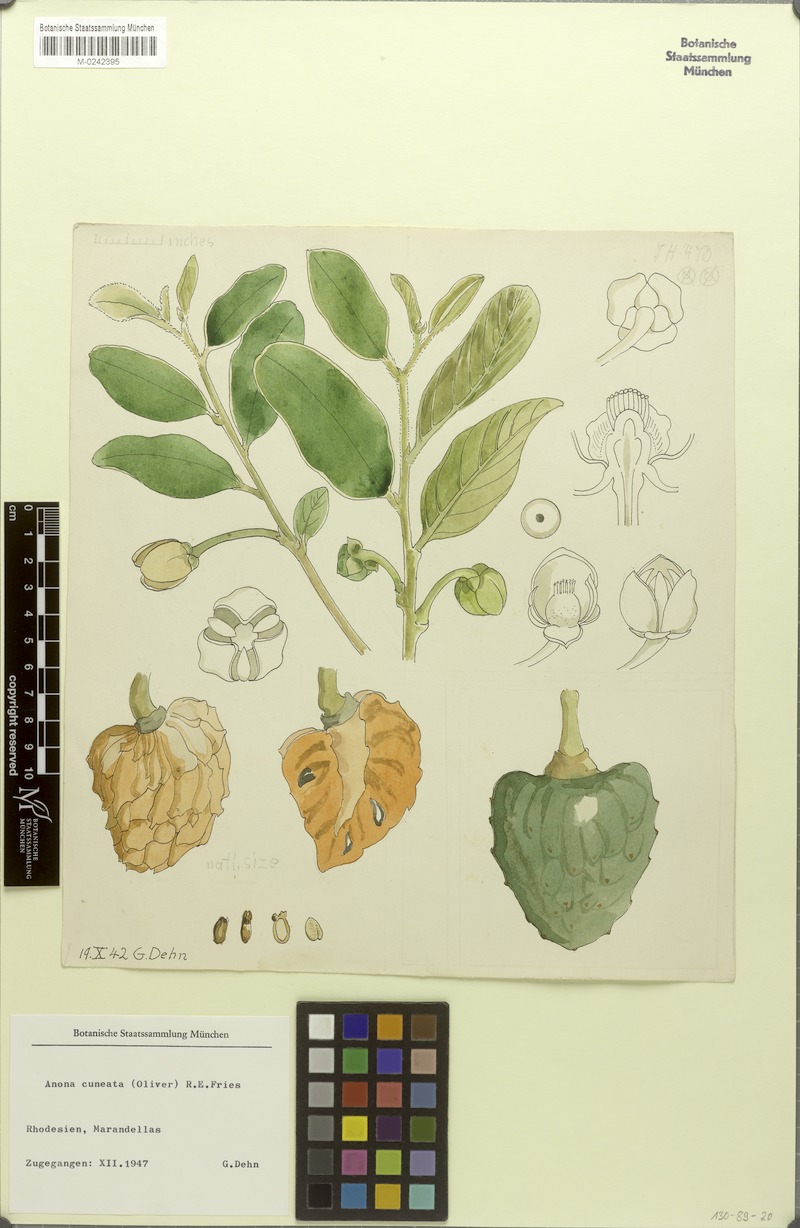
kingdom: Plantae
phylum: Tracheophyta
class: Magnoliopsida
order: Magnoliales
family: Annonaceae
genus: Annona
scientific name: Annona stenophylla
